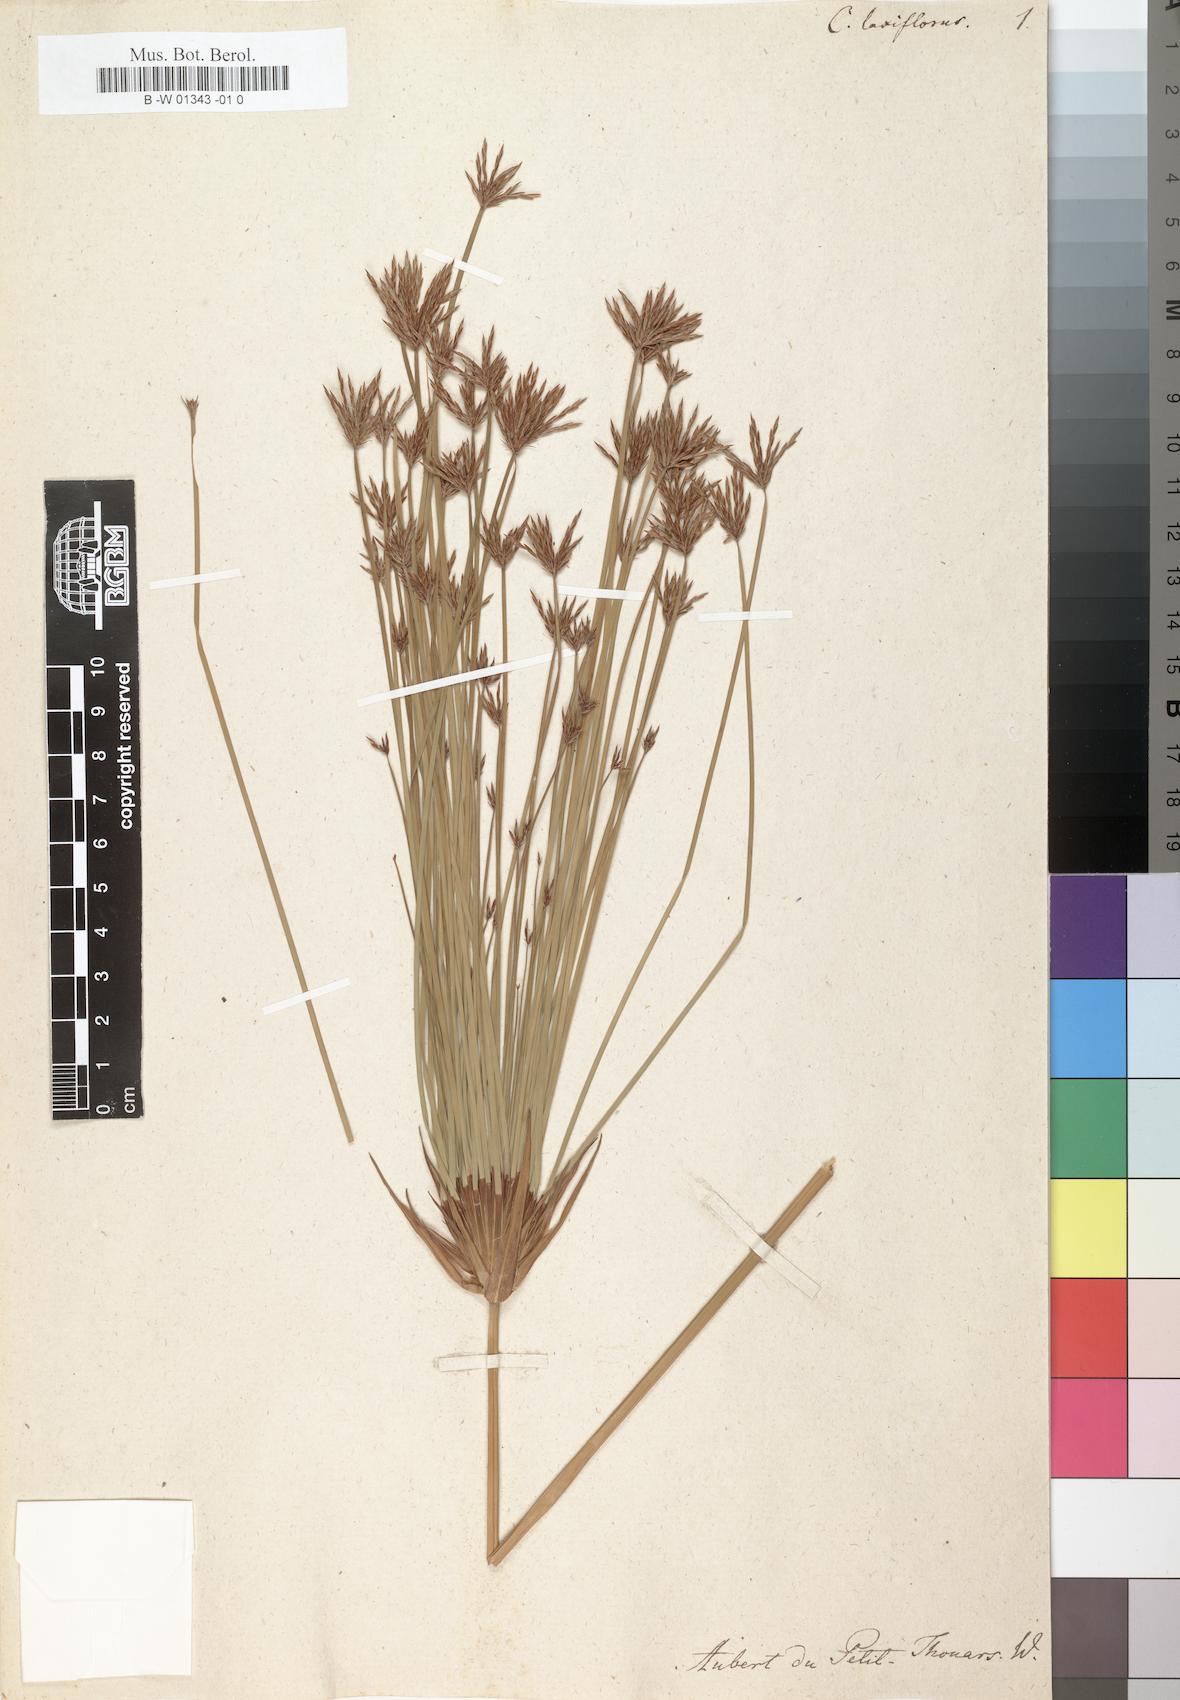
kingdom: Plantae
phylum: Tracheophyta
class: Liliopsida
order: Poales
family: Cyperaceae
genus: Cyperus
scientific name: Cyperus laxiflorus
